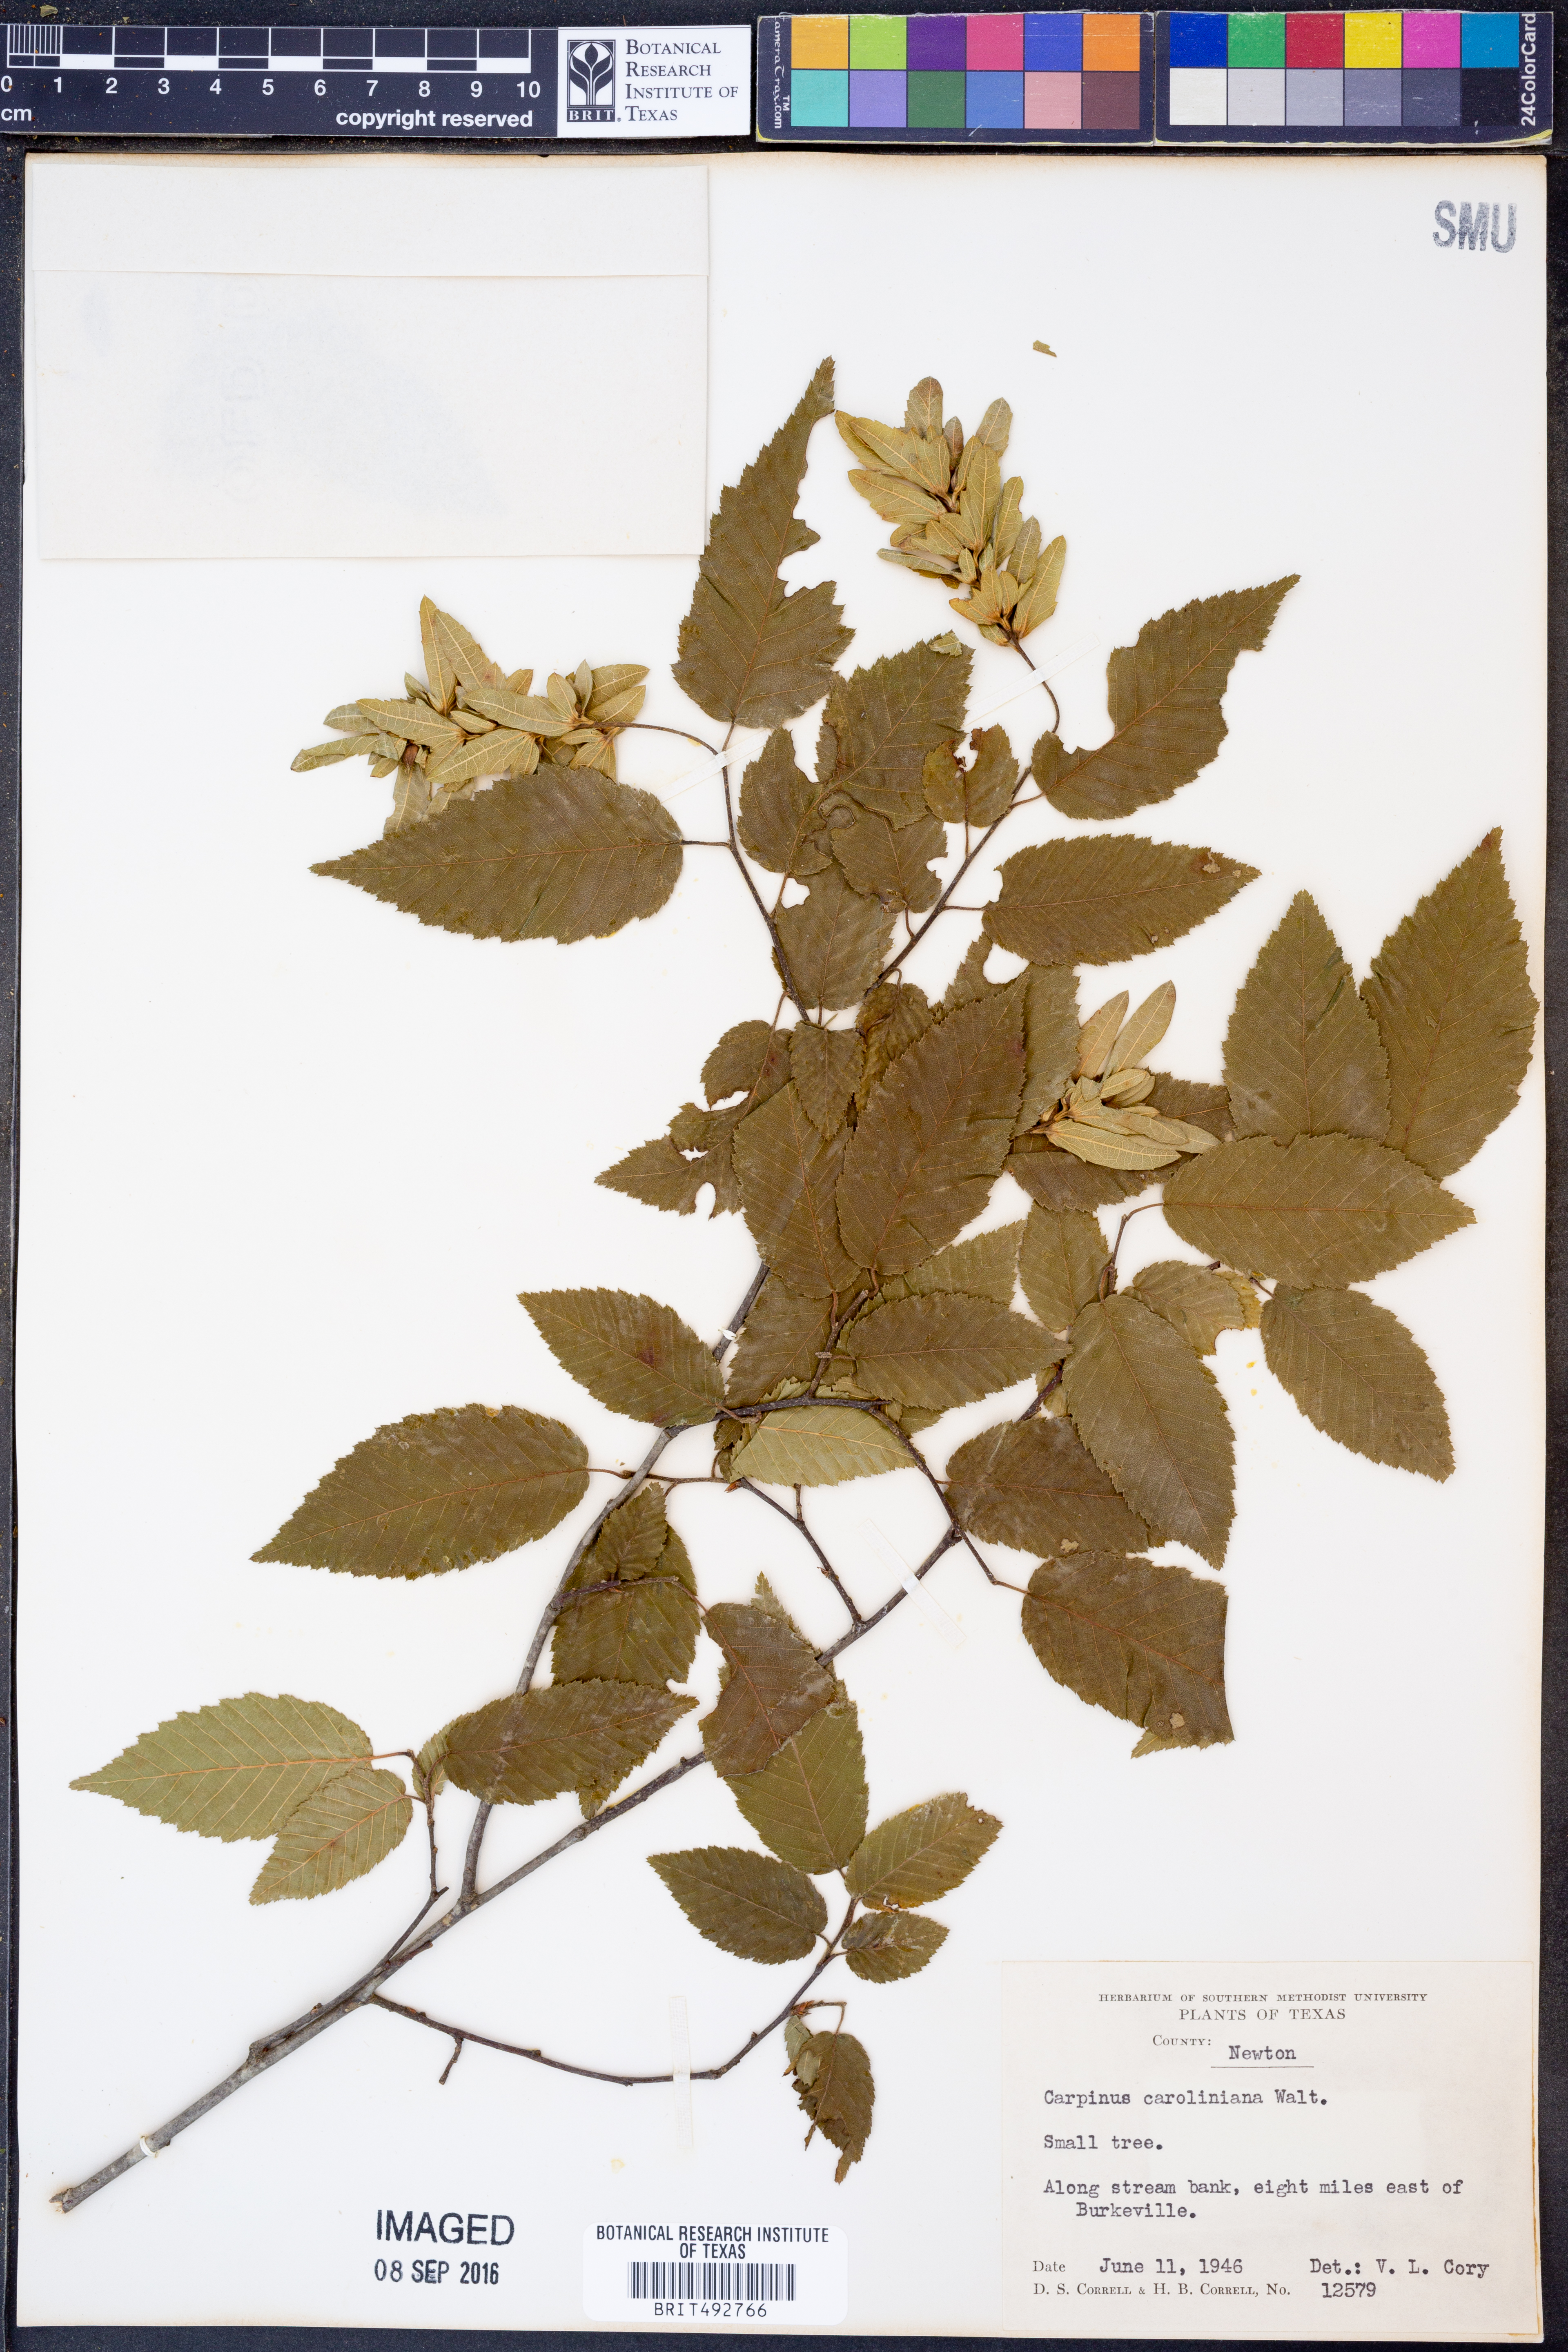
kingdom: Plantae
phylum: Tracheophyta
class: Magnoliopsida
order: Fagales
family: Betulaceae
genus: Carpinus
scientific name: Carpinus caroliniana
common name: American hornbeam
